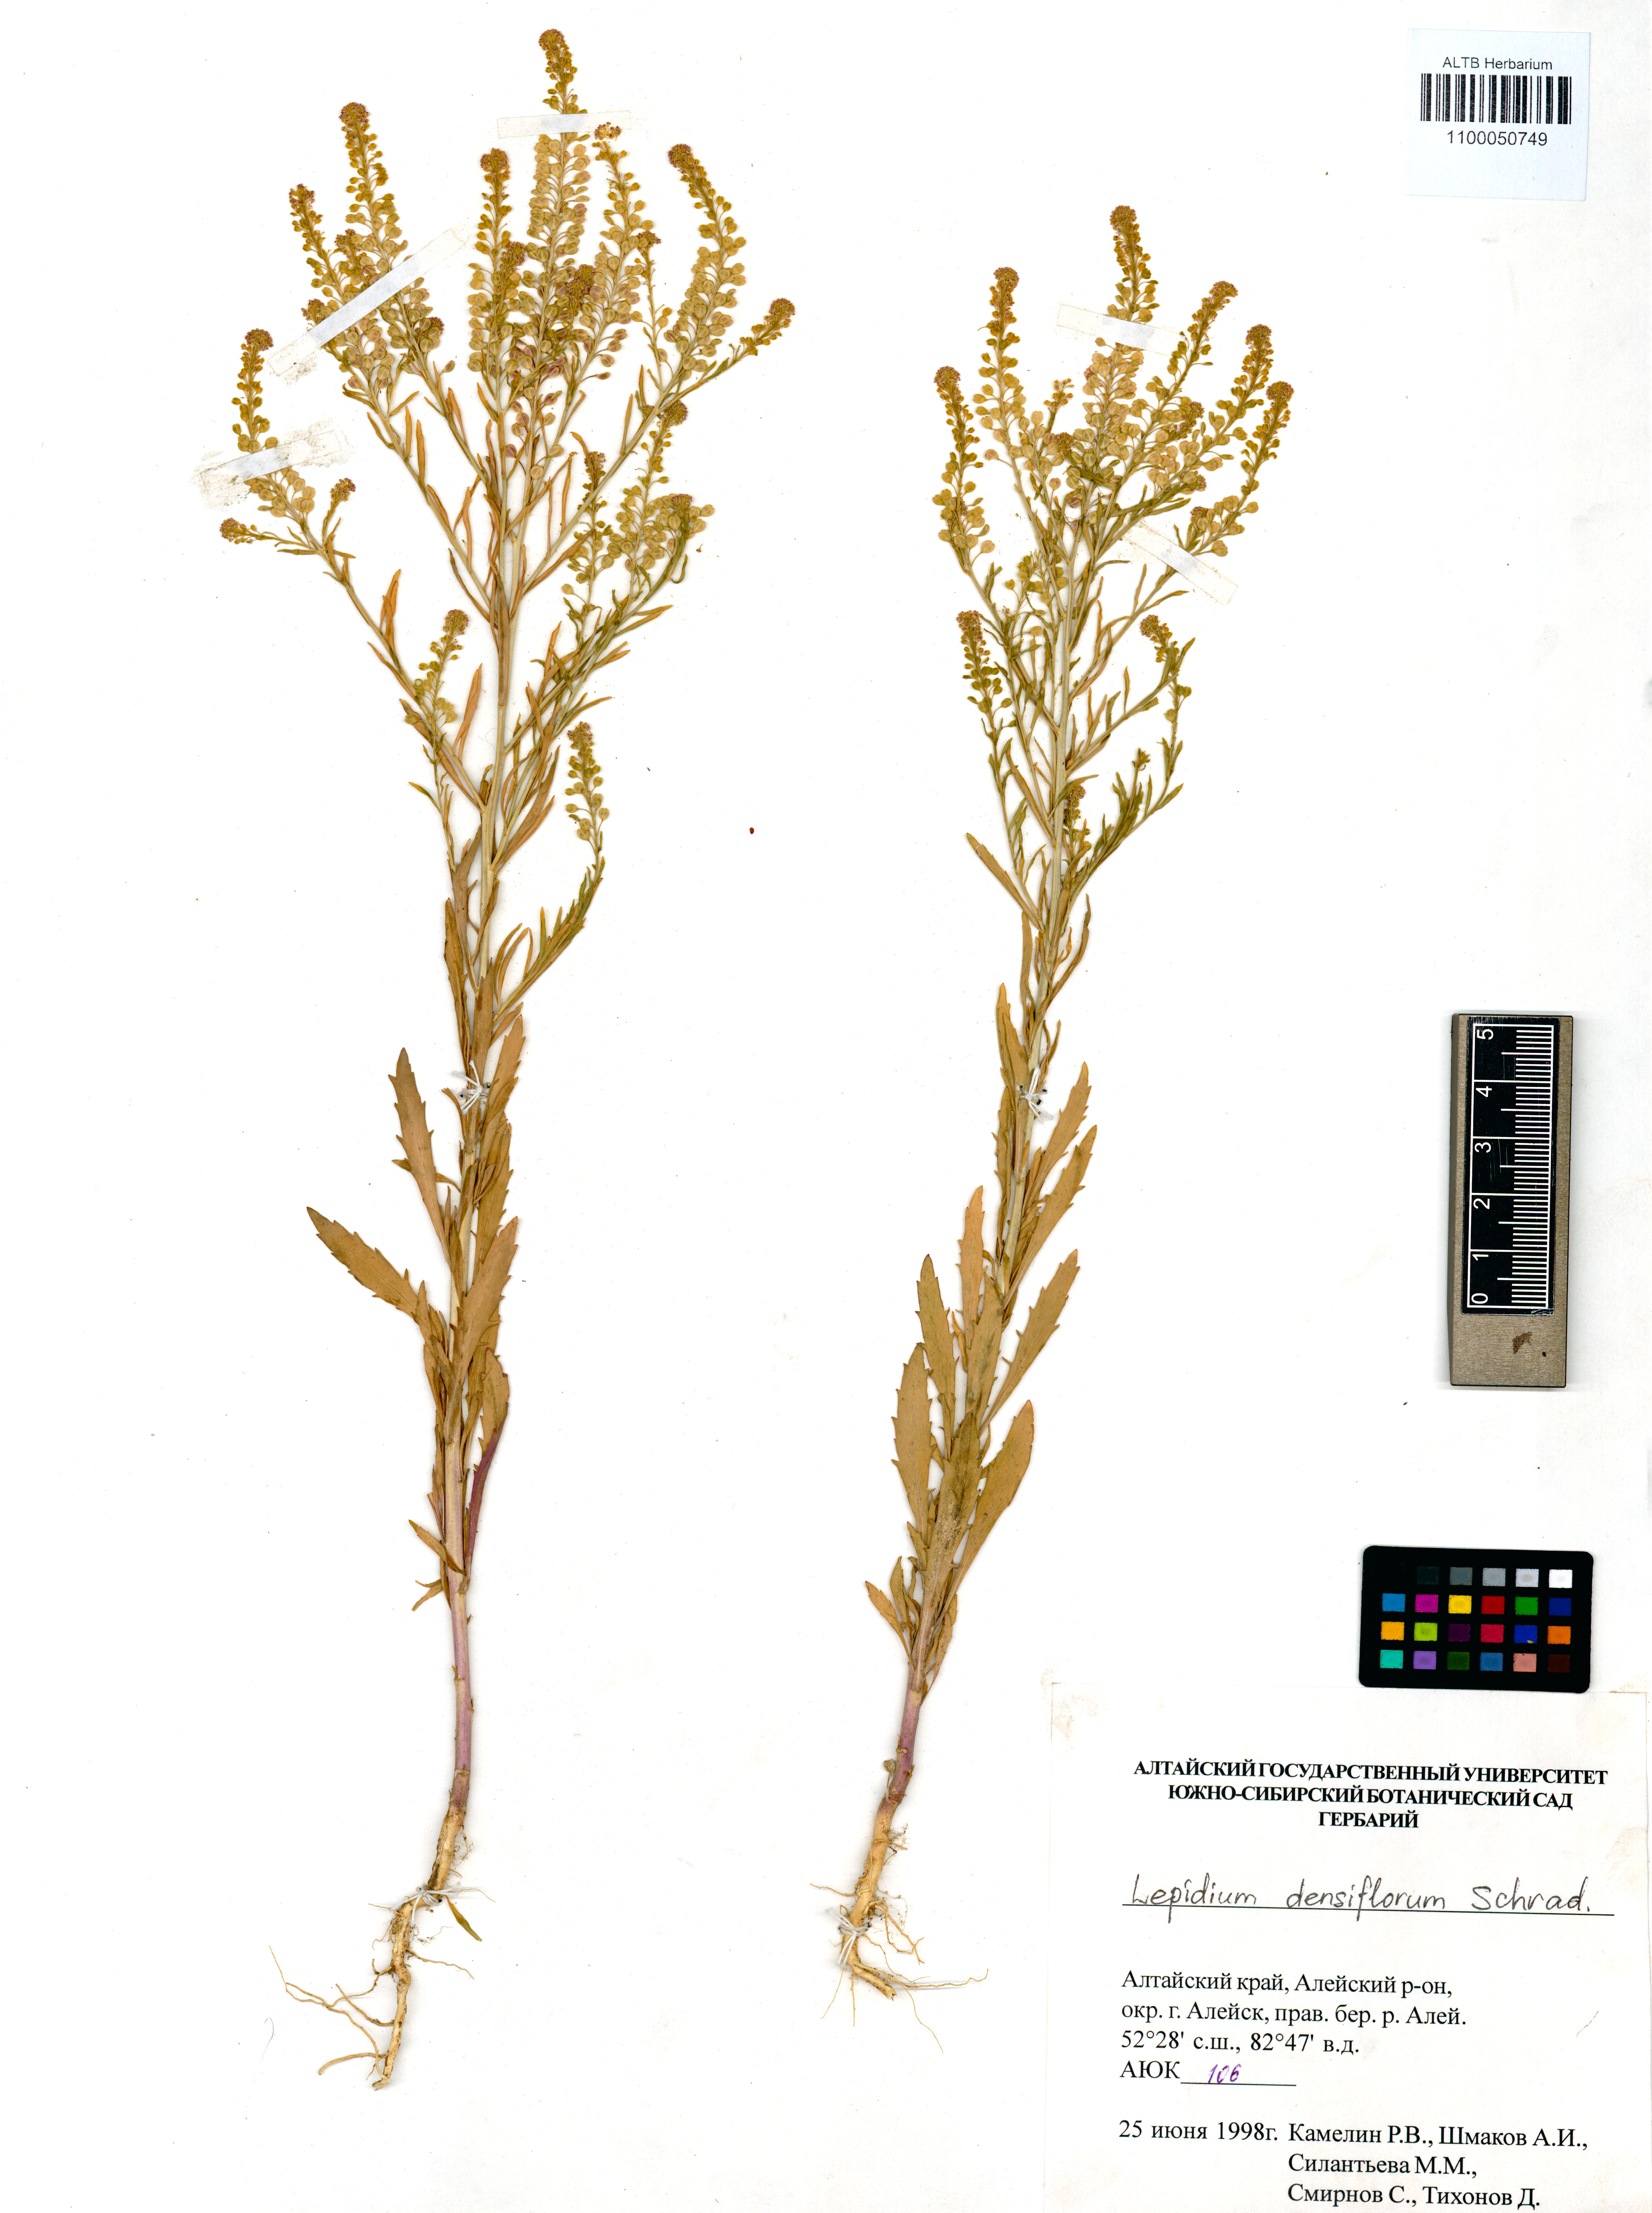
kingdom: Plantae
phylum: Tracheophyta
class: Magnoliopsida
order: Brassicales
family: Brassicaceae
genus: Lepidium
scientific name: Lepidium densiflorum
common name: Miner's pepperwort
